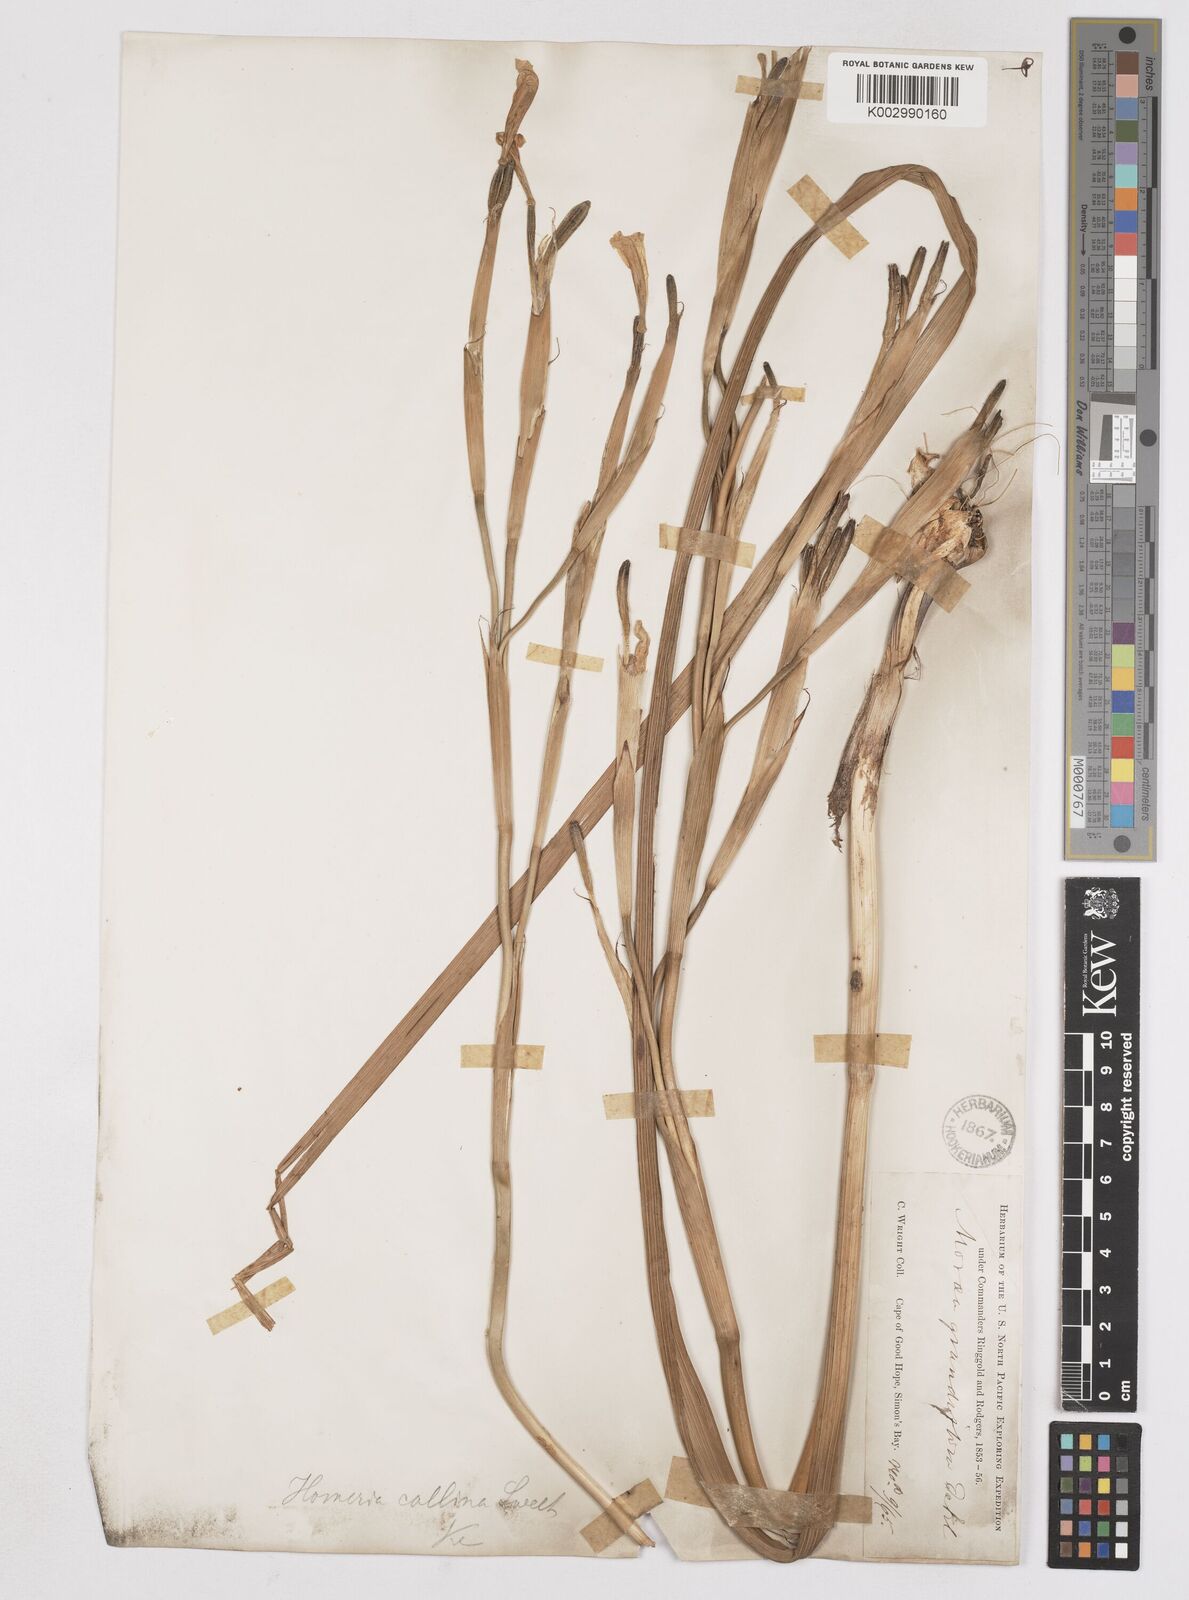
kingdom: Plantae
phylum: Tracheophyta
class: Liliopsida
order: Asparagales
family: Iridaceae
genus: Moraea
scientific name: Moraea collina
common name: Cape-tulip
